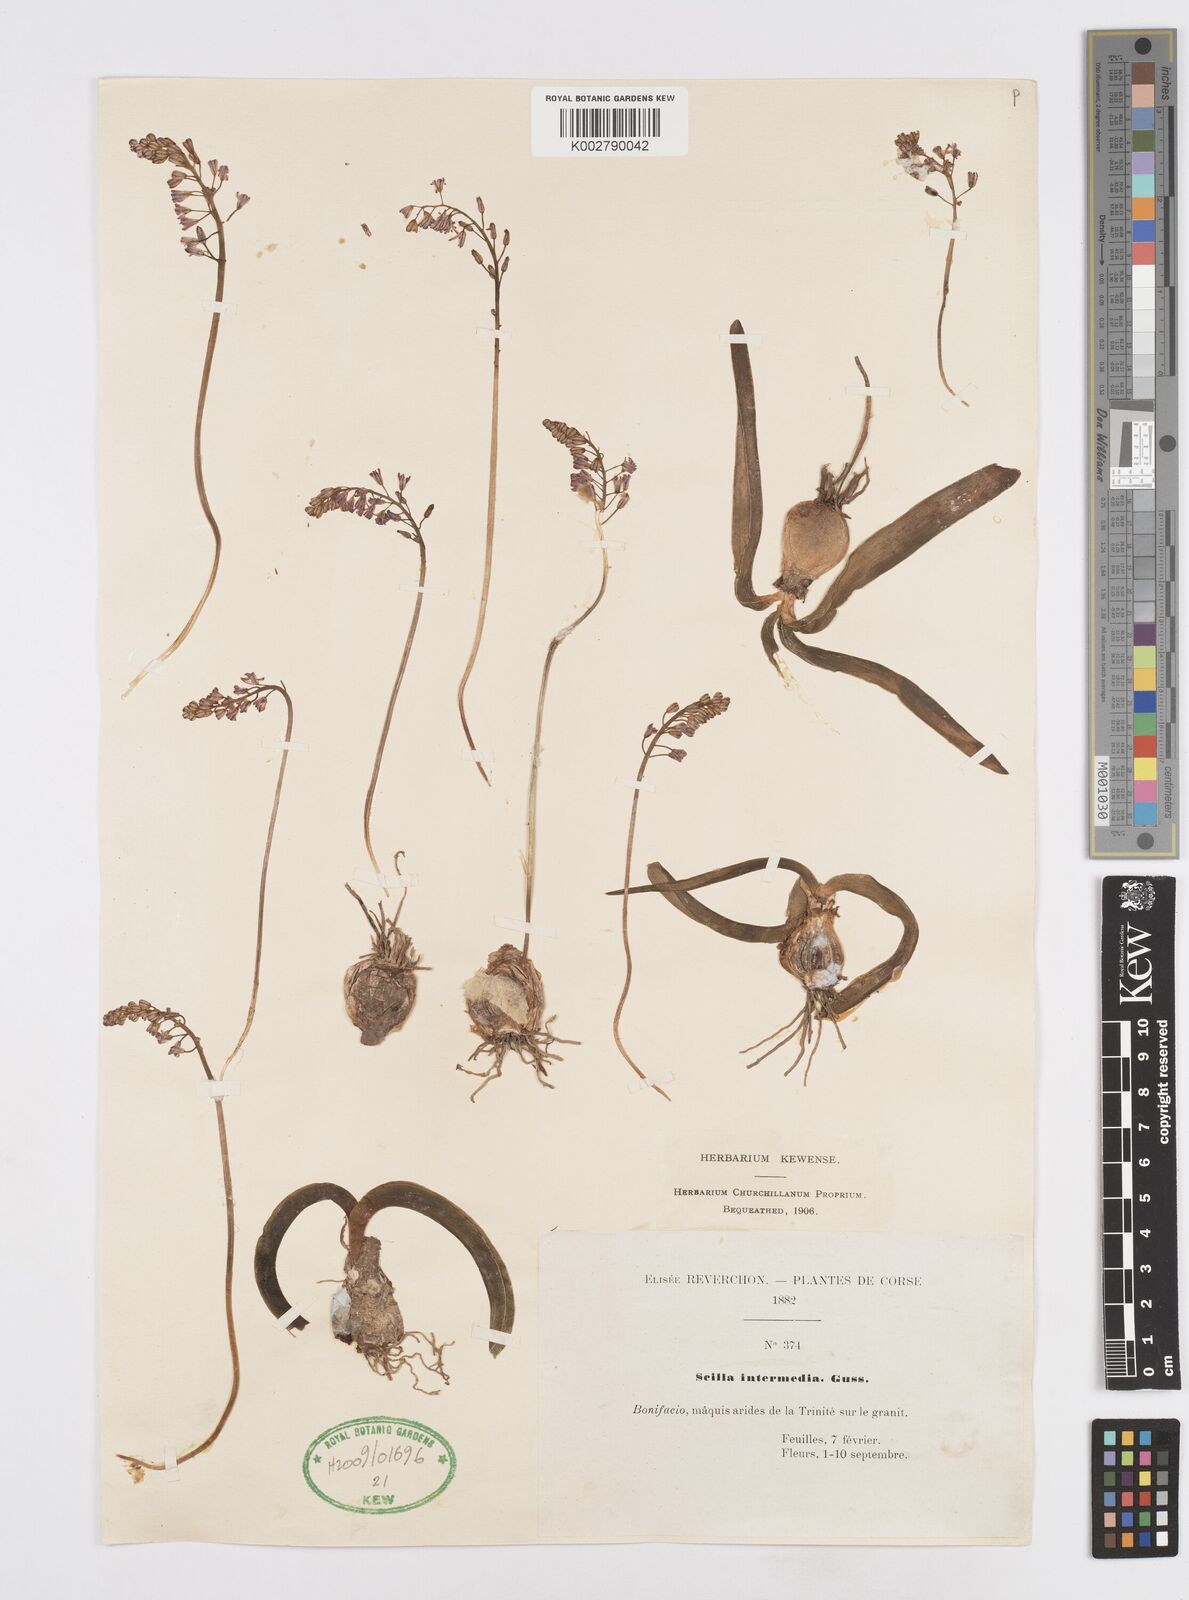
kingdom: Plantae
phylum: Tracheophyta
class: Liliopsida
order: Asparagales
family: Asparagaceae
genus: Prospero
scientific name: Prospero obtusifolium
